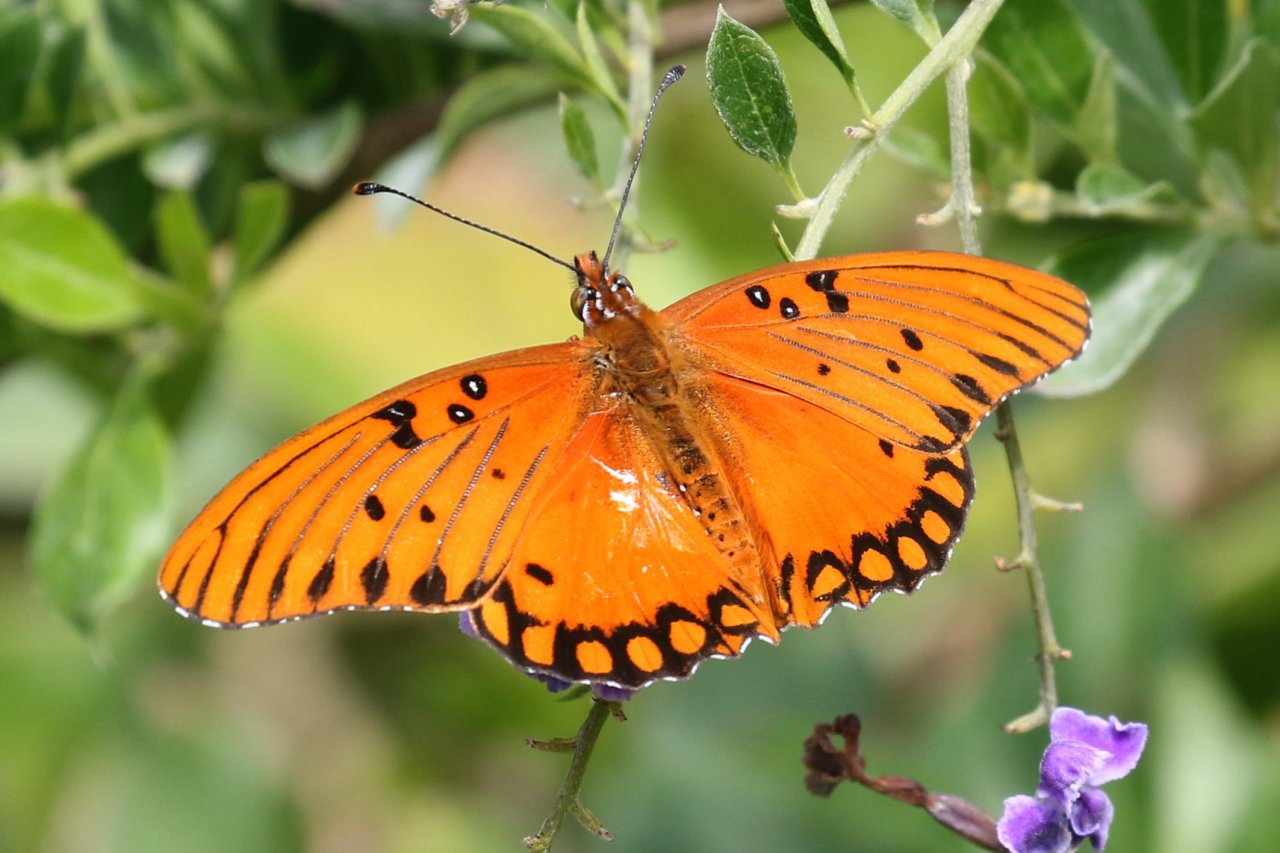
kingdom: Animalia
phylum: Arthropoda
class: Insecta
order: Lepidoptera
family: Nymphalidae
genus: Dione
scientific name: Dione vanillae
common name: Gulf Fritillary
